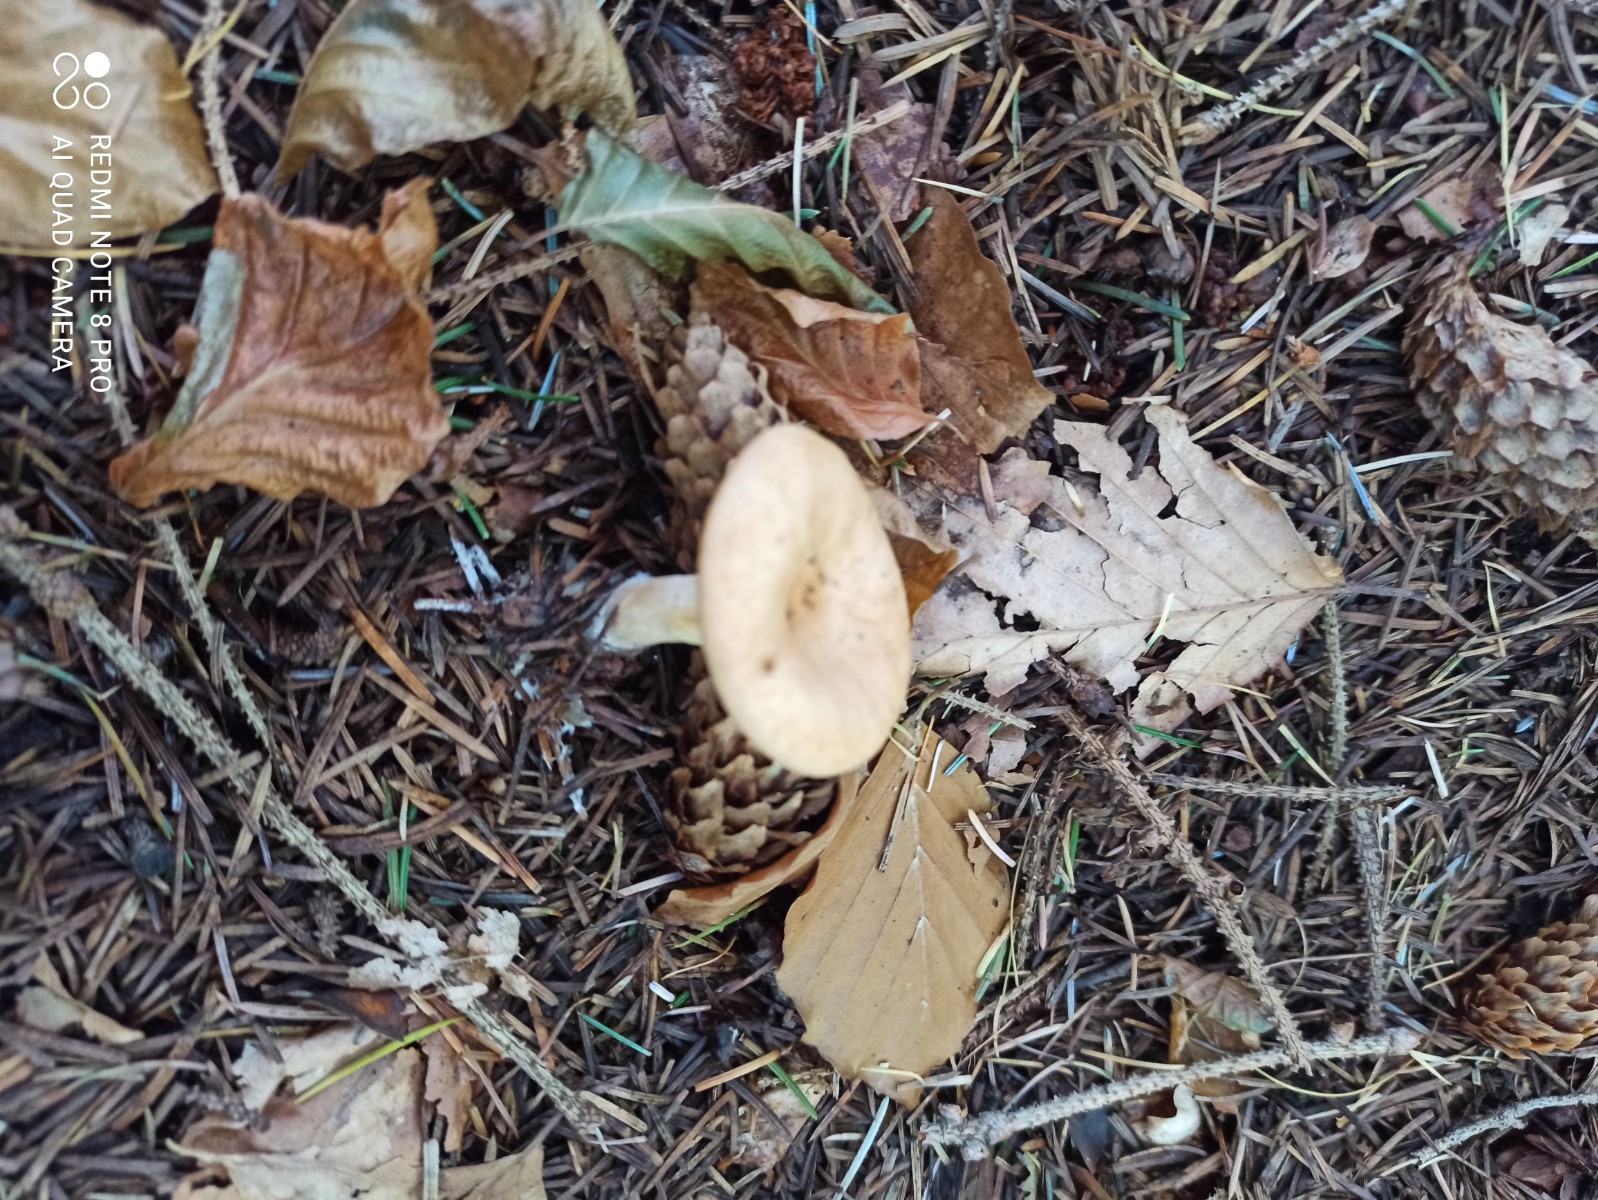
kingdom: Fungi
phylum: Basidiomycota
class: Agaricomycetes
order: Agaricales
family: Tricholomataceae
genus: Paralepista
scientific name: Paralepista flaccida
